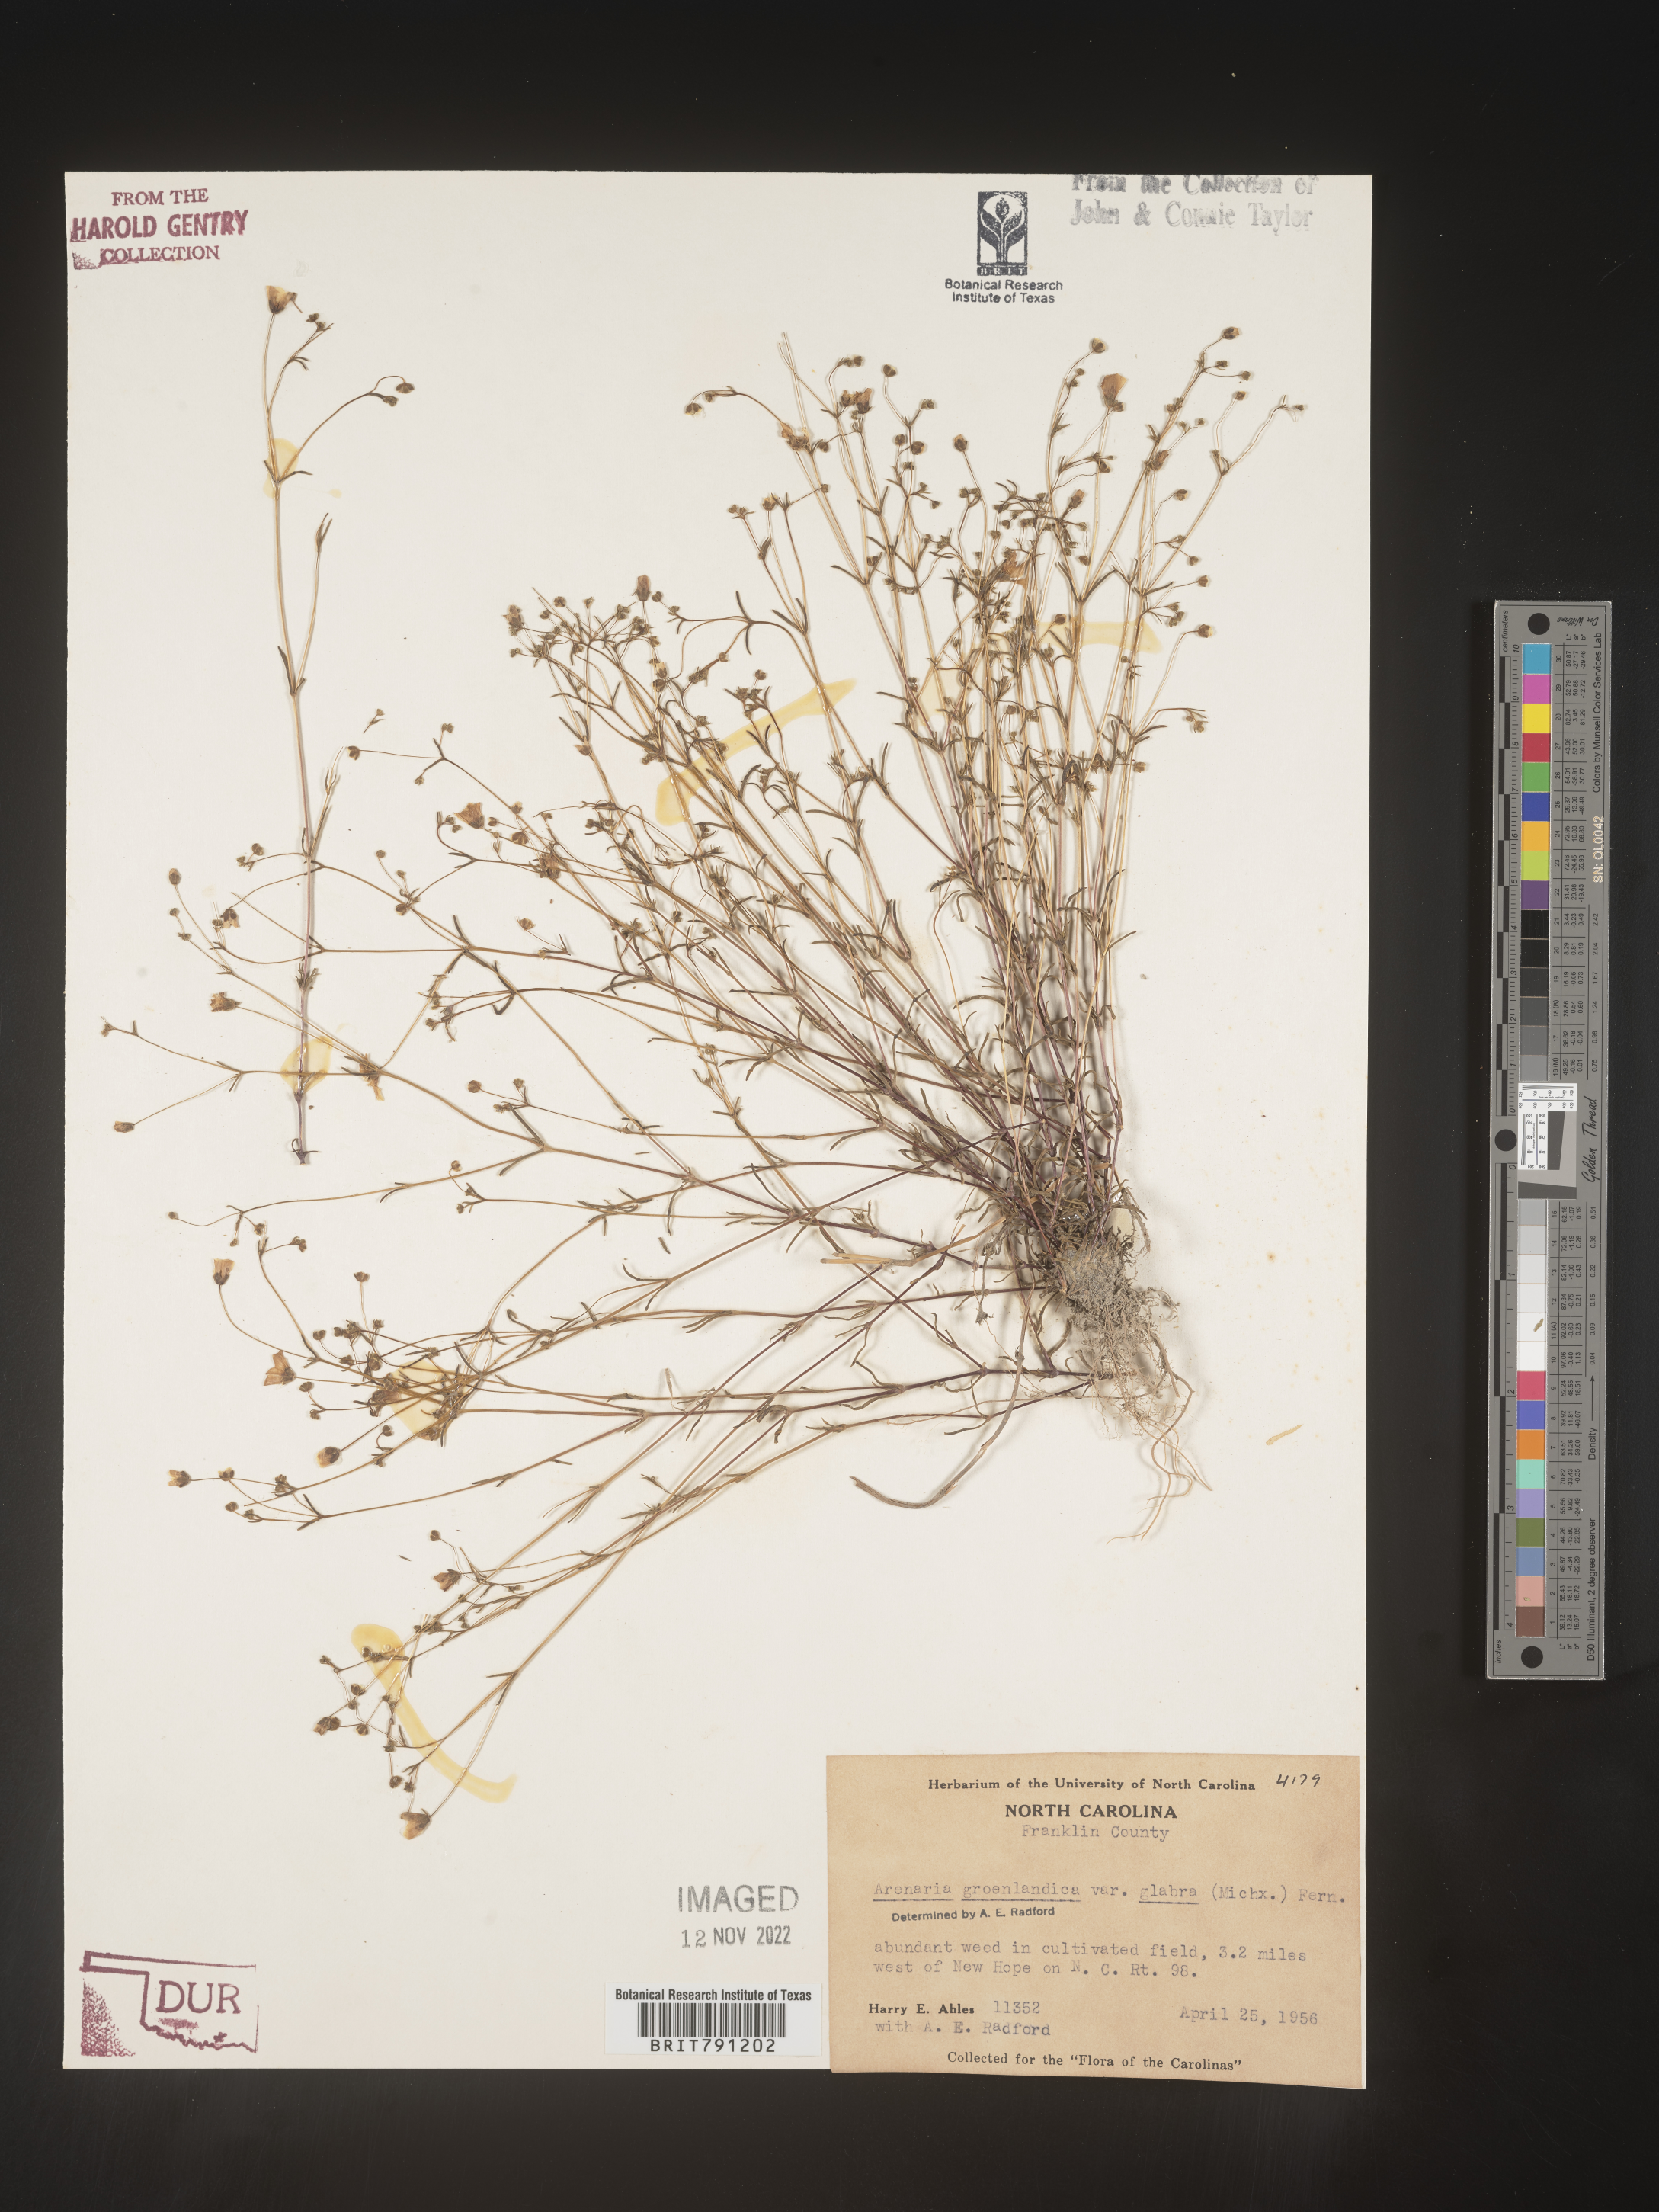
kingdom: Plantae
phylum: Tracheophyta
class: Magnoliopsida
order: Caryophyllales
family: Caryophyllaceae
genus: Geocarpon
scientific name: Geocarpon glabrum
